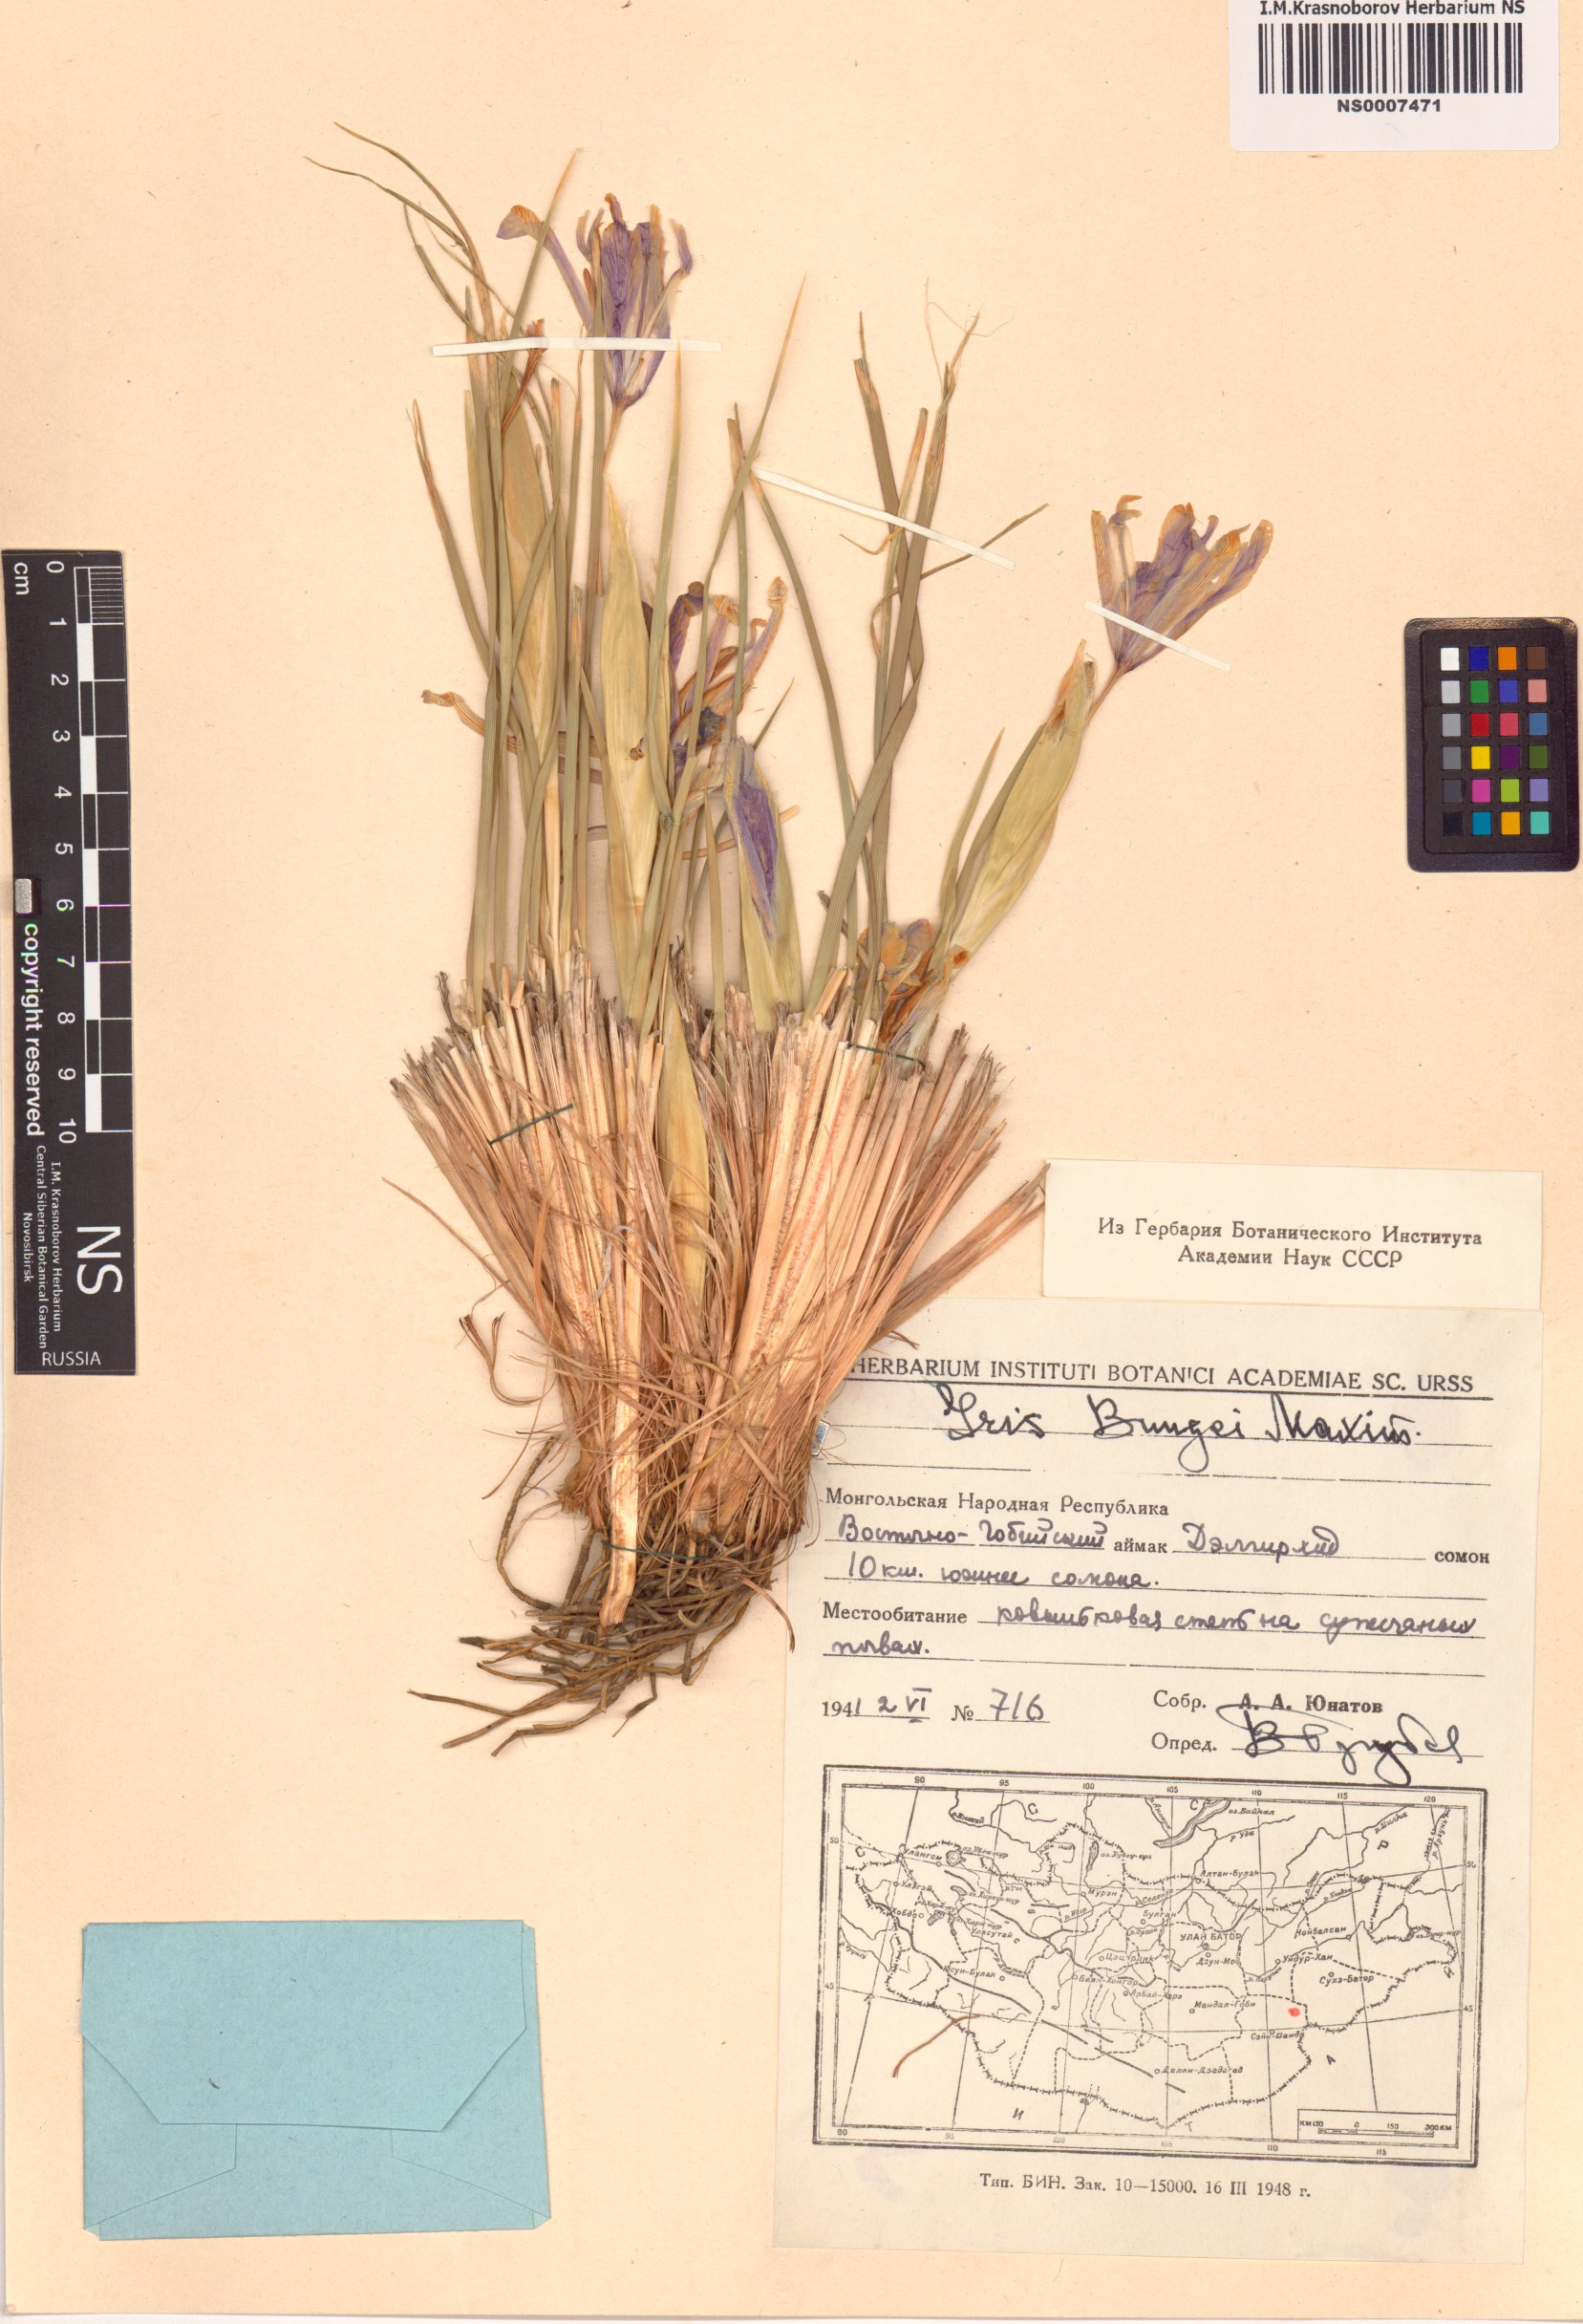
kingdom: Plantae
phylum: Tracheophyta
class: Liliopsida
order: Asparagales
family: Iridaceae
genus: Iris
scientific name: Iris bungei
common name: Large-bract iris
